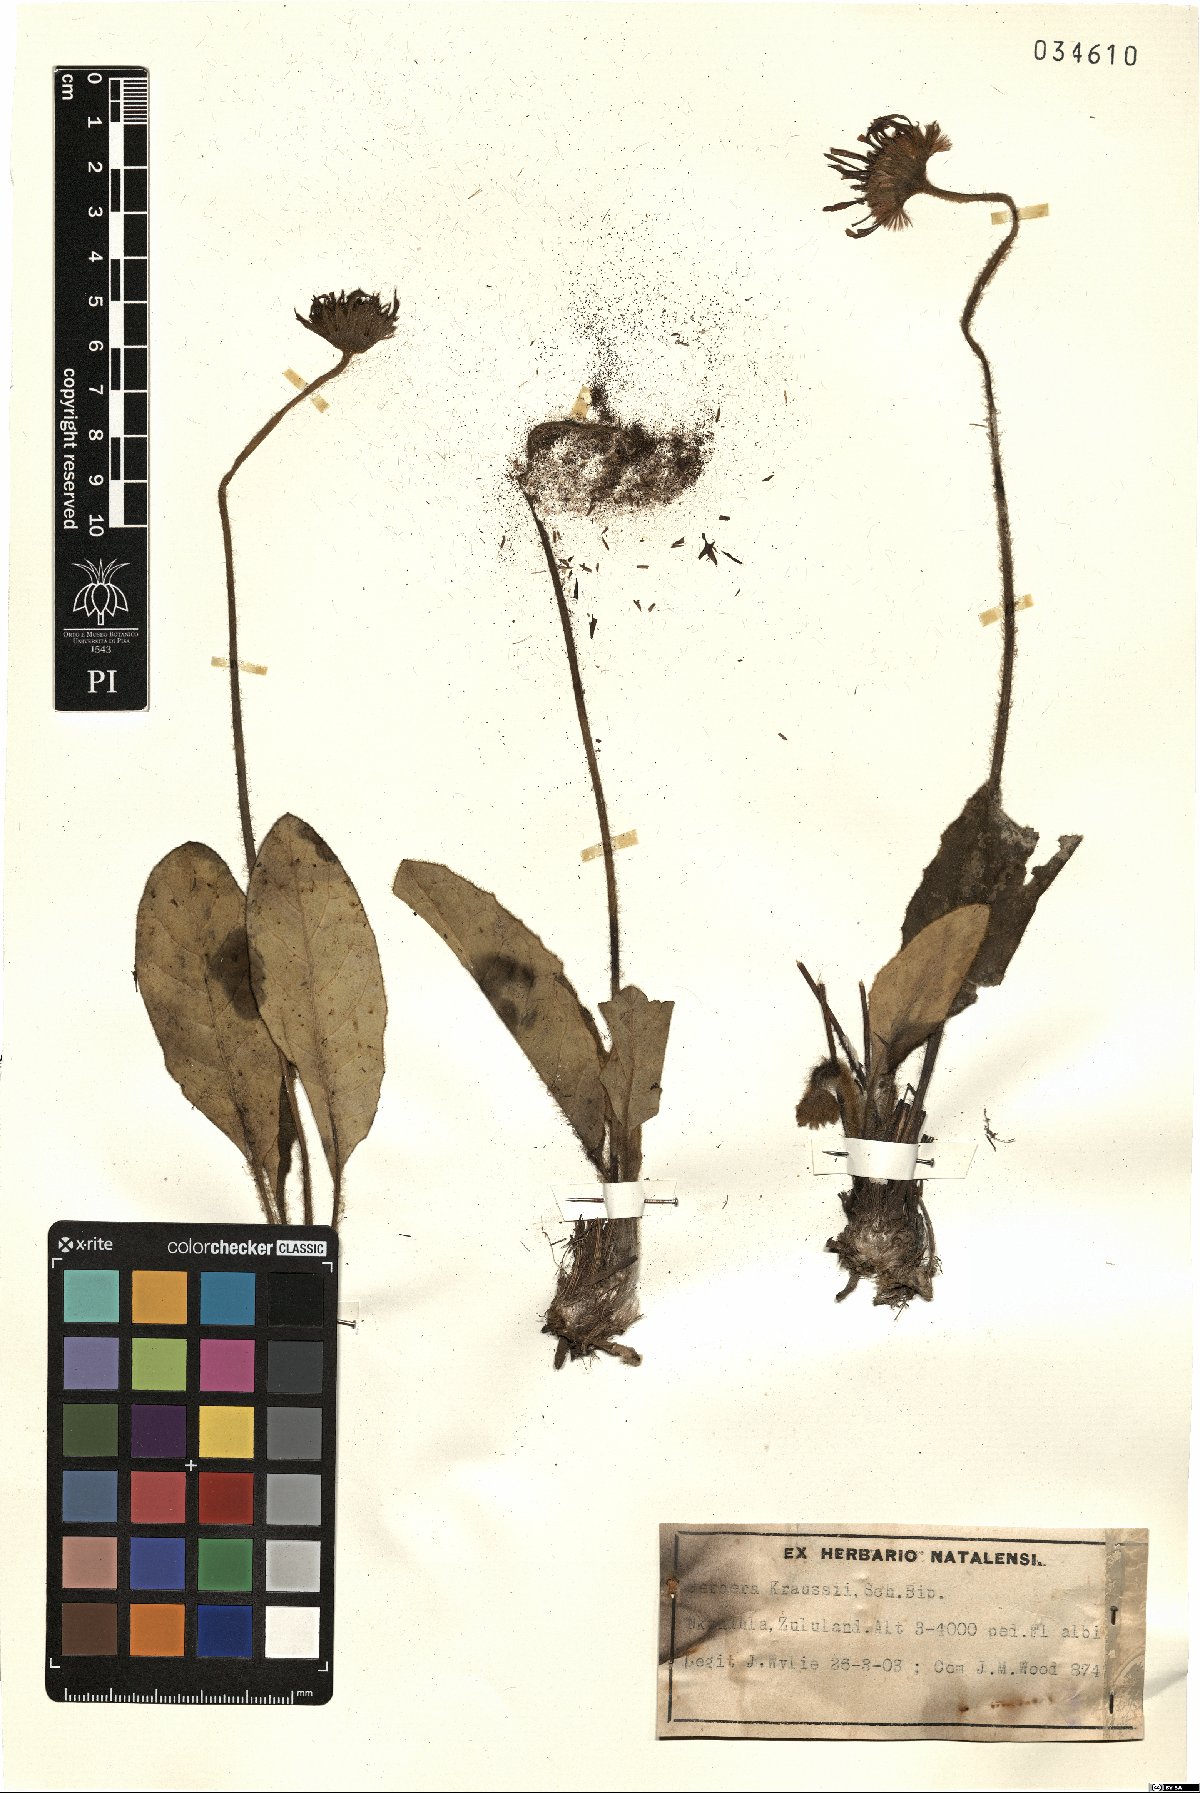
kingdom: Plantae
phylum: Tracheophyta
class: Magnoliopsida
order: Asterales
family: Asteraceae
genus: Gerbera
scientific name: Gerbera ambigua
